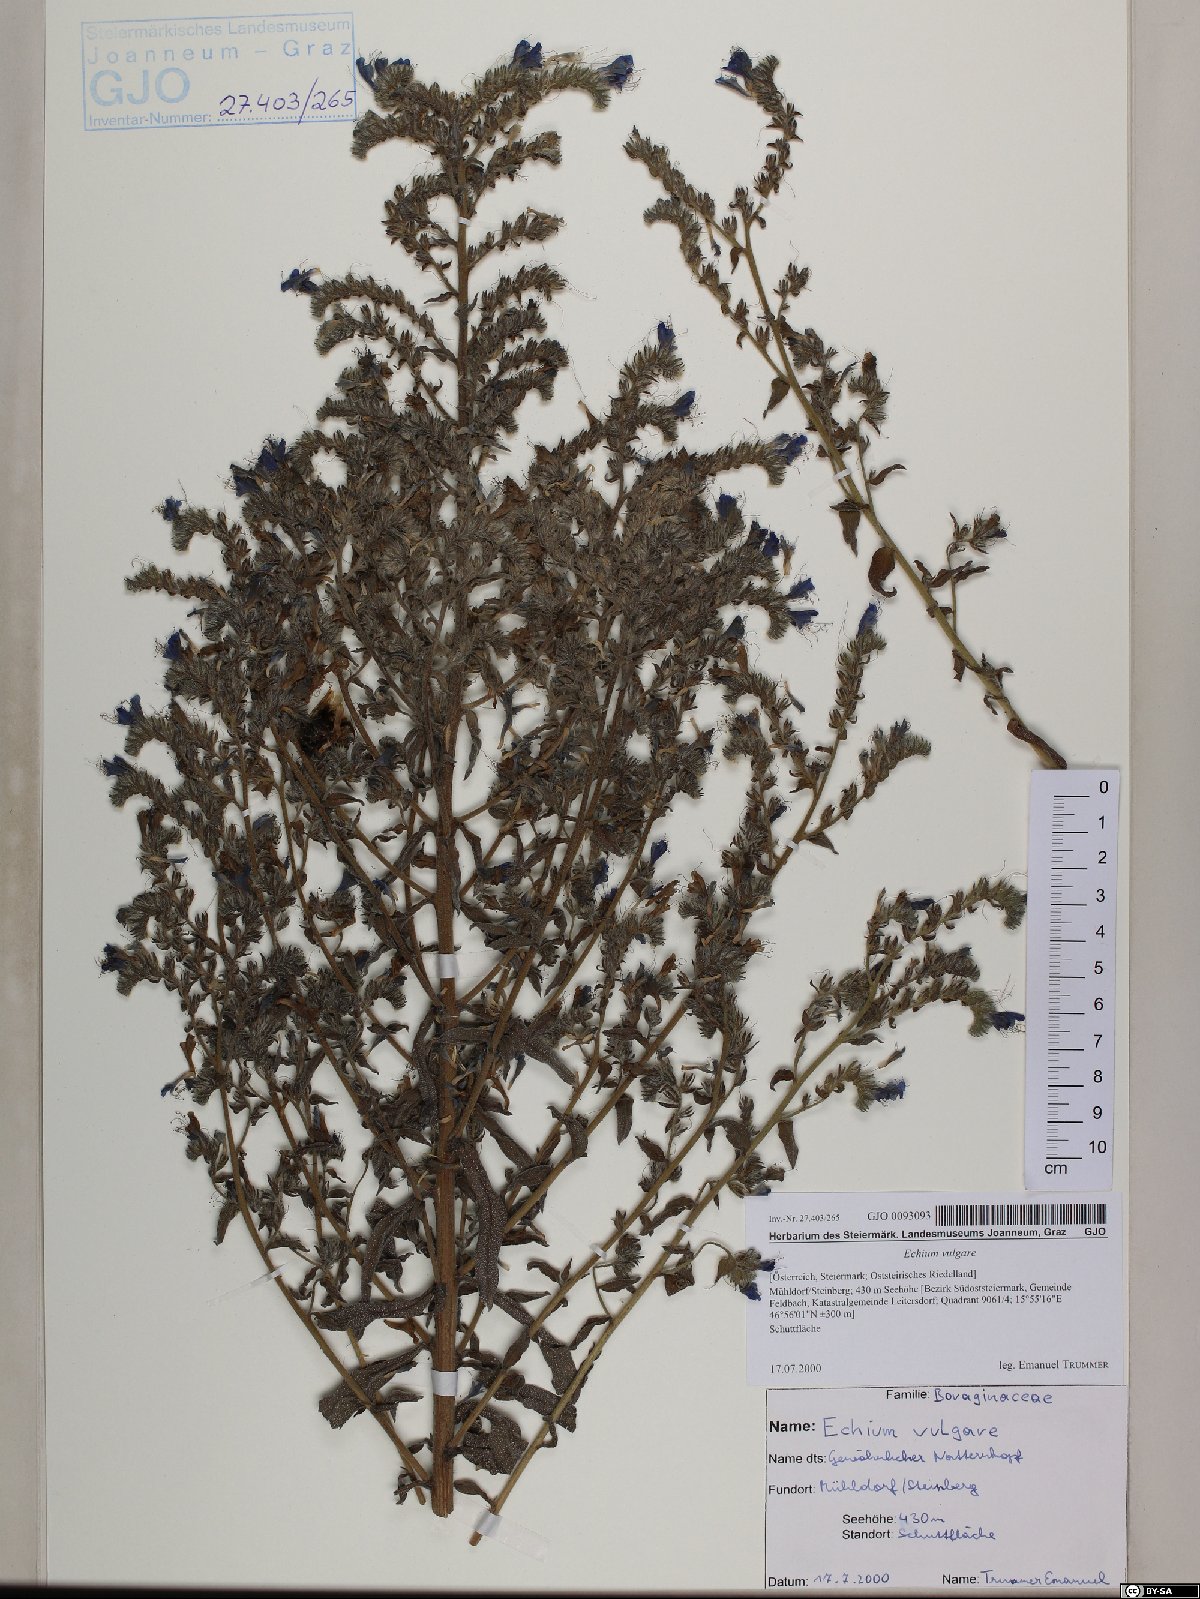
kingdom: Plantae
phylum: Tracheophyta
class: Magnoliopsida
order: Boraginales
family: Boraginaceae
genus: Echium
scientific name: Echium vulgare
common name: Common viper's bugloss
